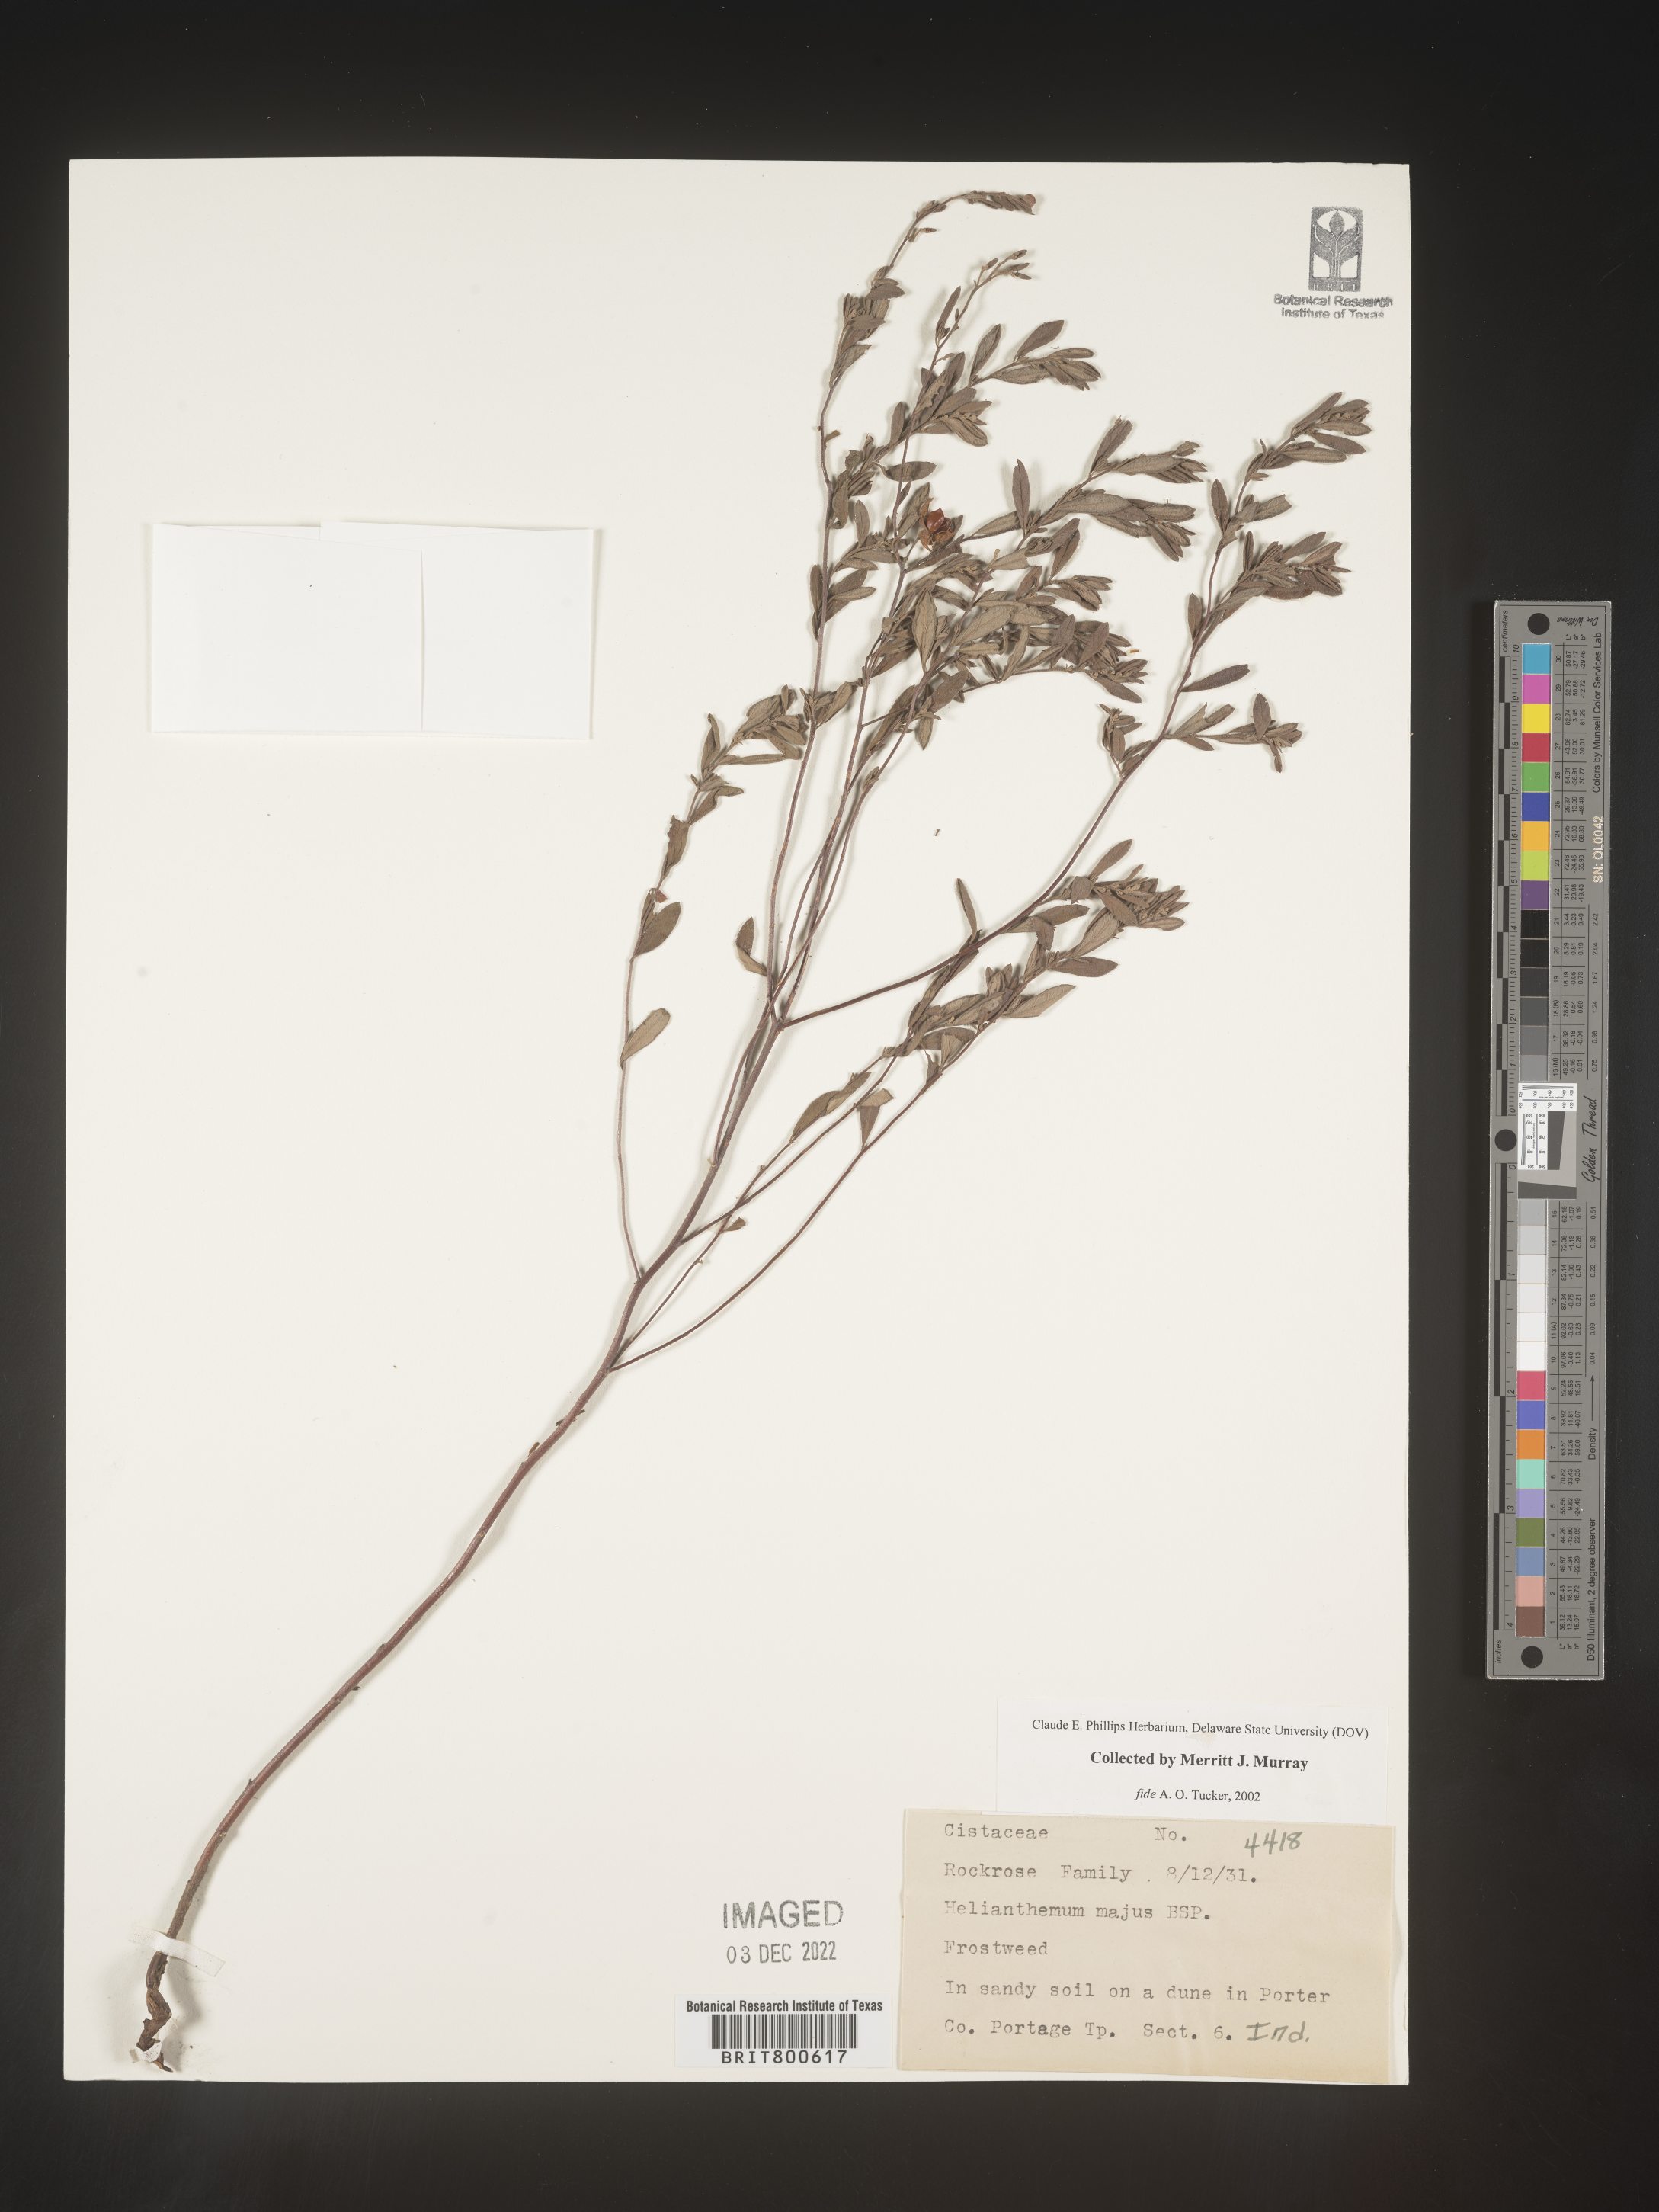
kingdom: Plantae
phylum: Tracheophyta
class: Magnoliopsida
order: Malvales
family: Cistaceae
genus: Helianthemum
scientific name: Helianthemum
